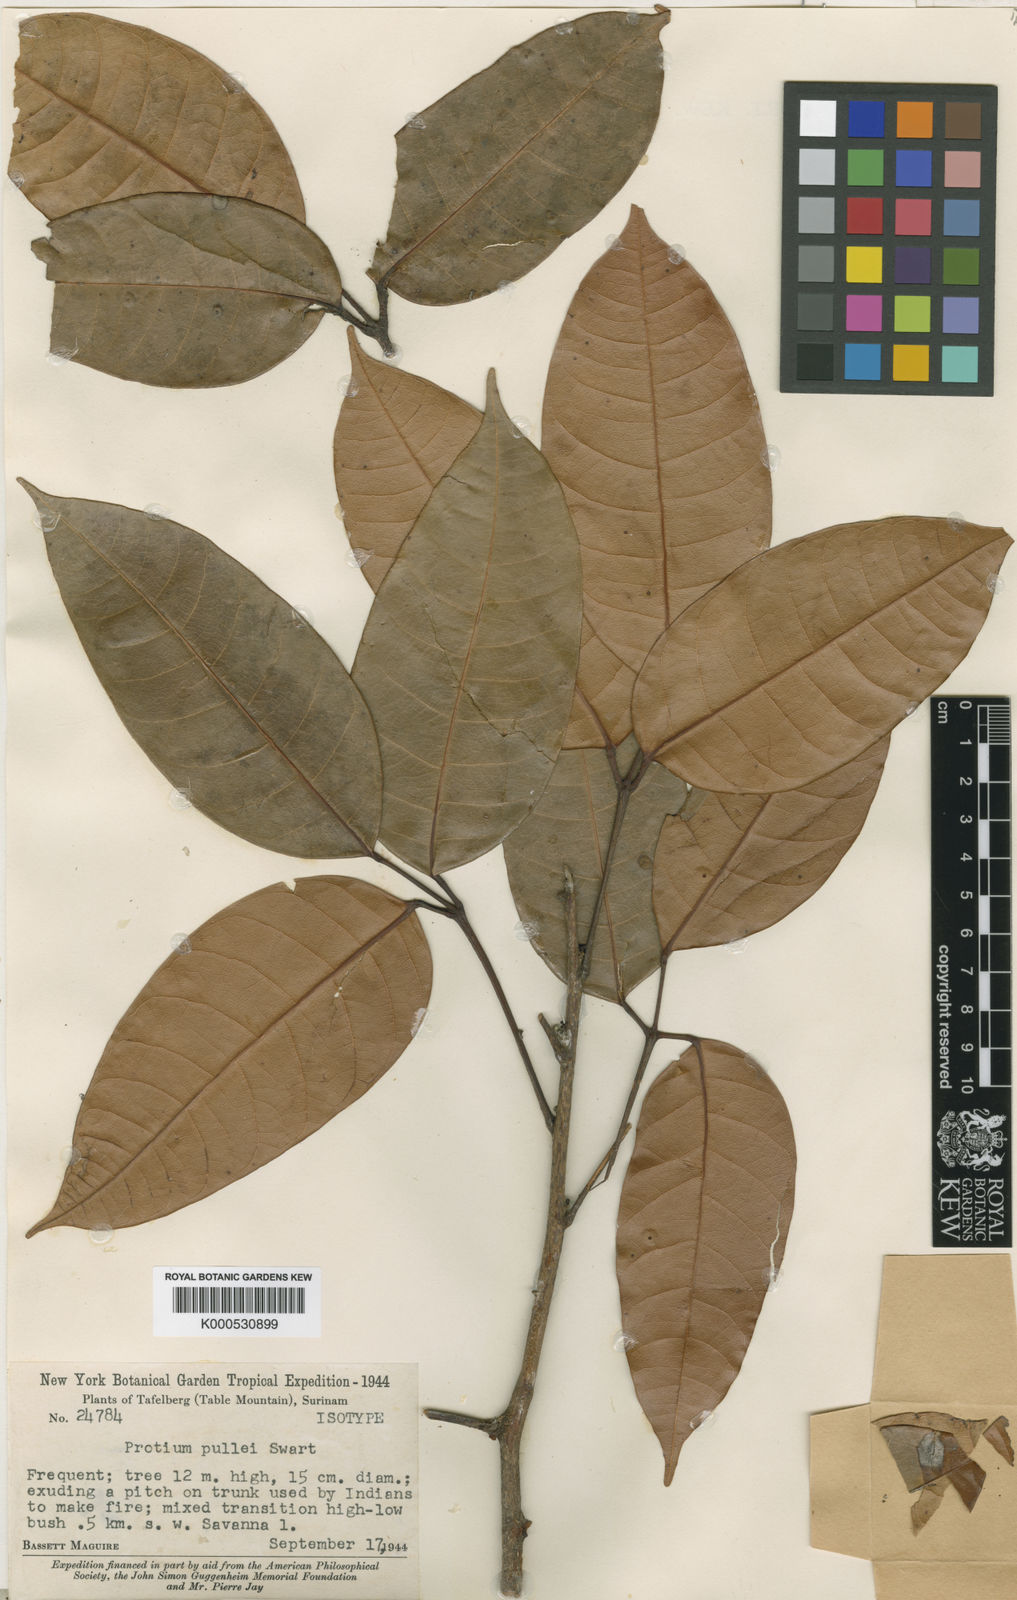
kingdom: Plantae
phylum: Tracheophyta
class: Magnoliopsida
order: Sapindales
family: Burseraceae
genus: Protium
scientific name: Protium pullei
